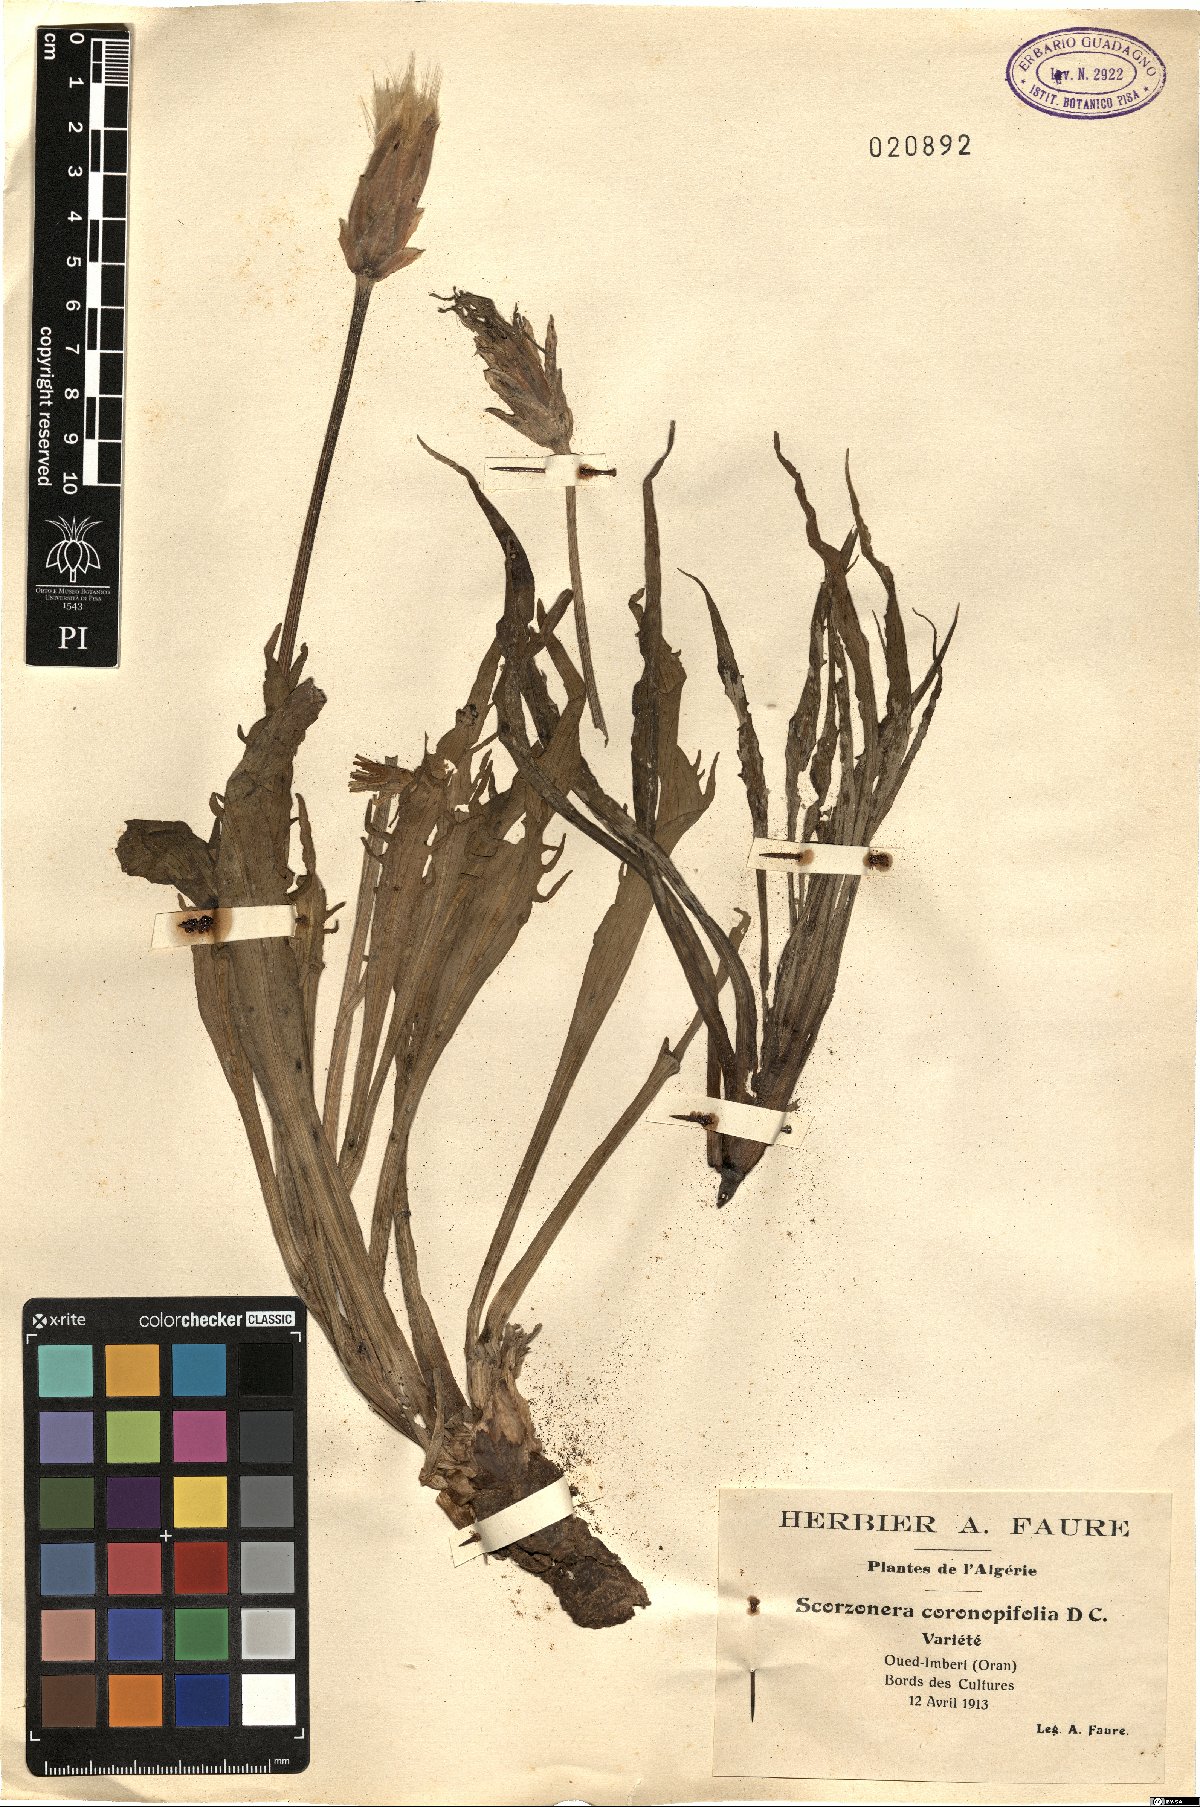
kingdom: Plantae
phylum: Tracheophyta
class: Magnoliopsida
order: Asterales
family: Asteraceae
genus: Pseudopodospermum
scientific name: Pseudopodospermum brevicaule
